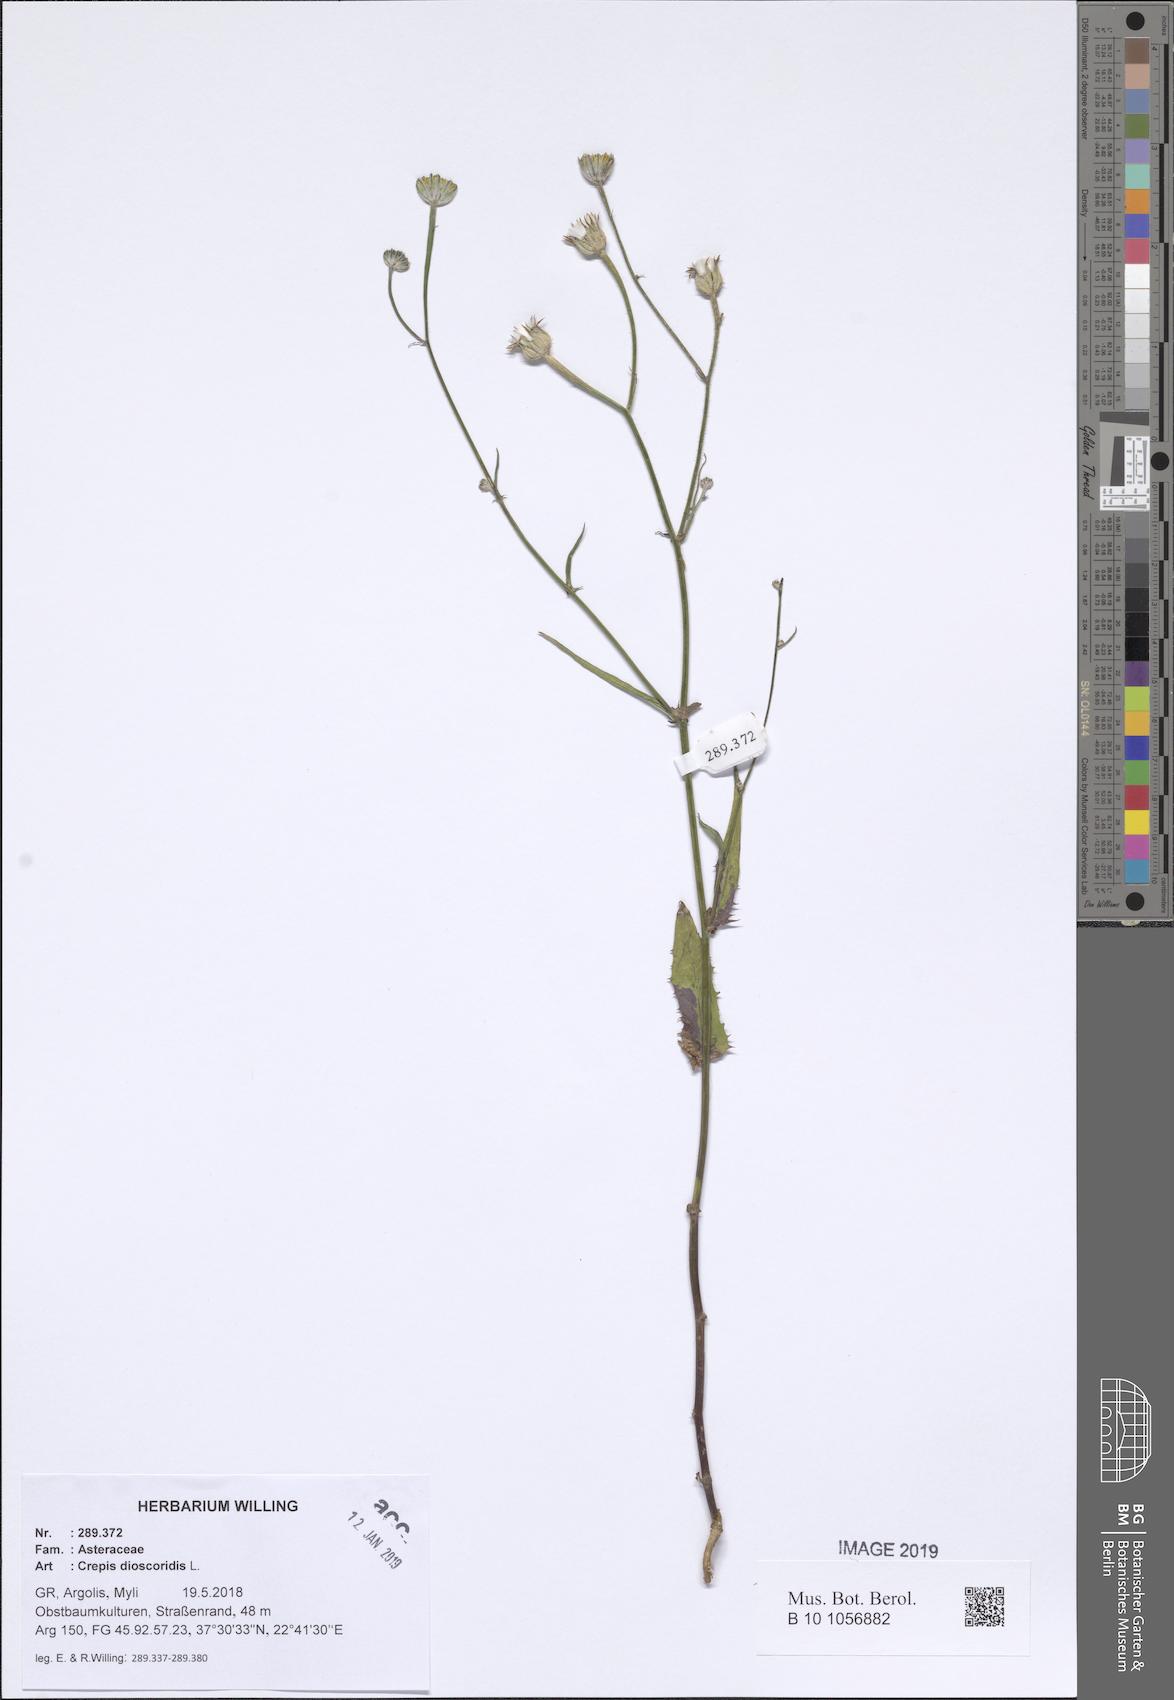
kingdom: Plantae
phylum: Tracheophyta
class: Magnoliopsida
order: Asterales
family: Asteraceae
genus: Crepis
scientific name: Crepis dioscoridis
